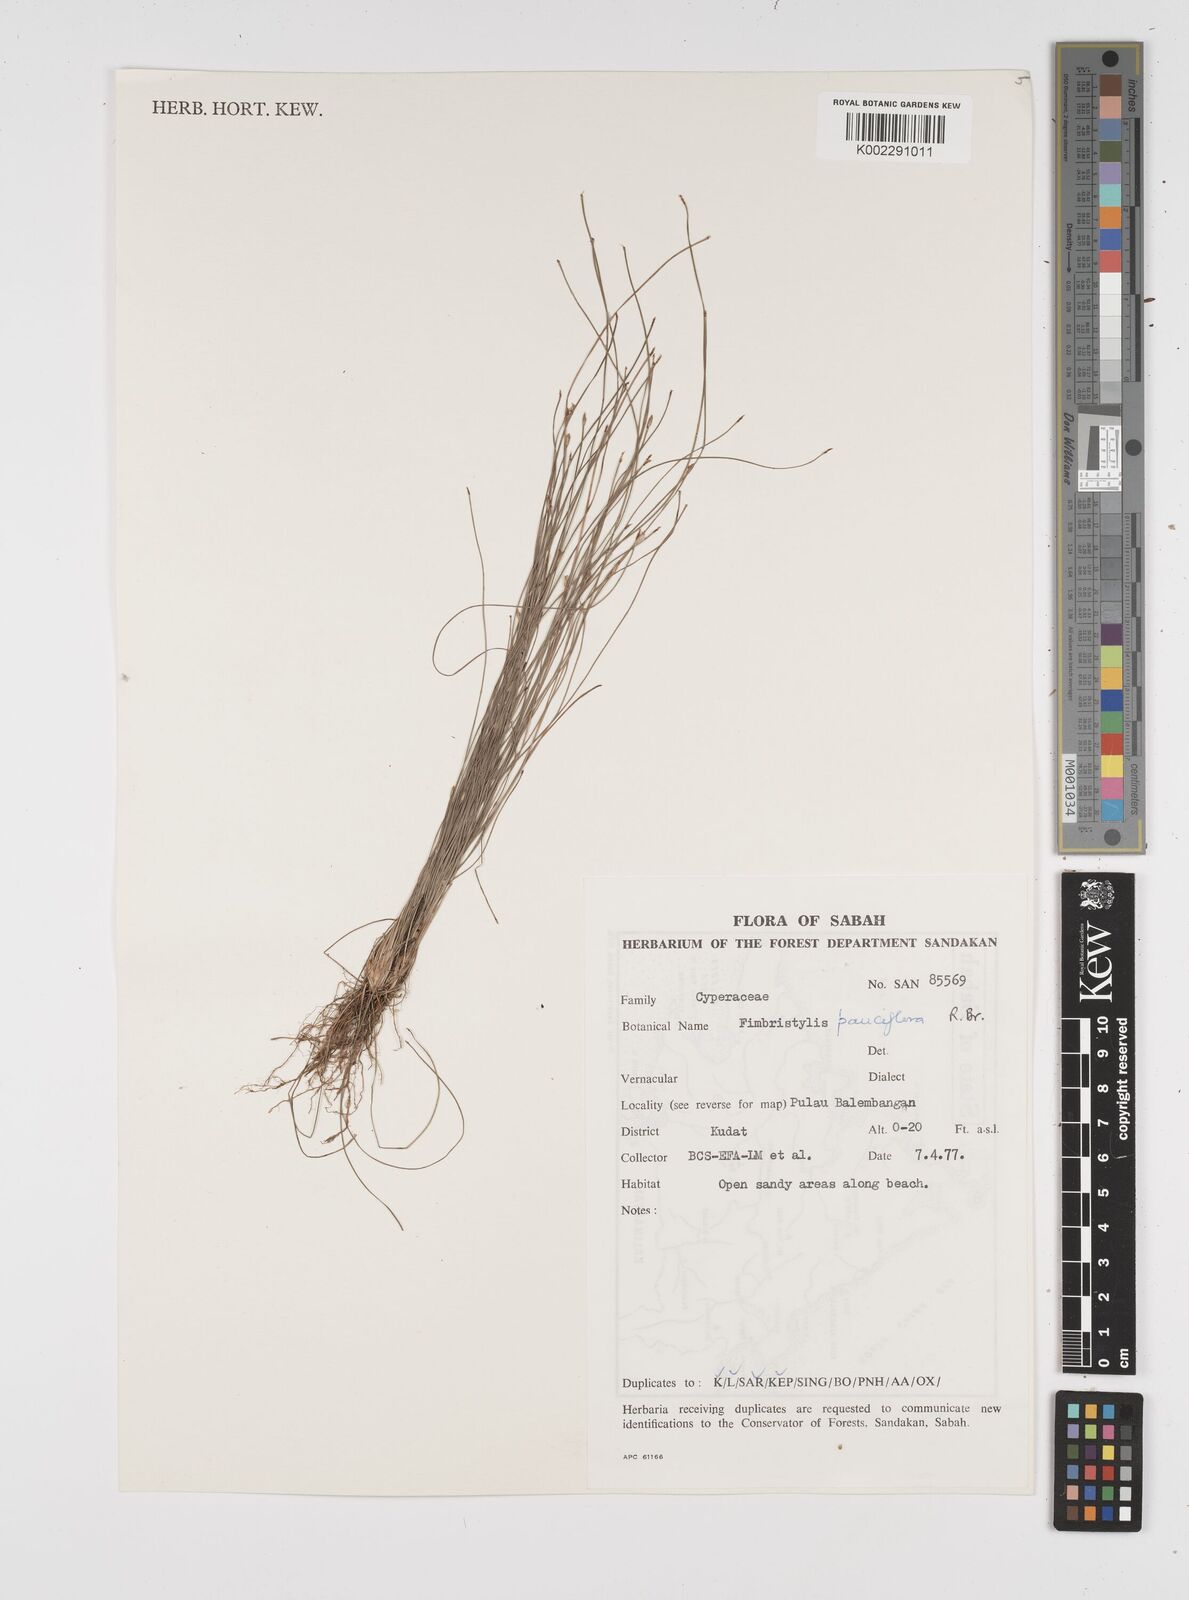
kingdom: Plantae
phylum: Tracheophyta
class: Liliopsida
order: Poales
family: Cyperaceae
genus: Fimbristylis
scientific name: Fimbristylis pauciflora
